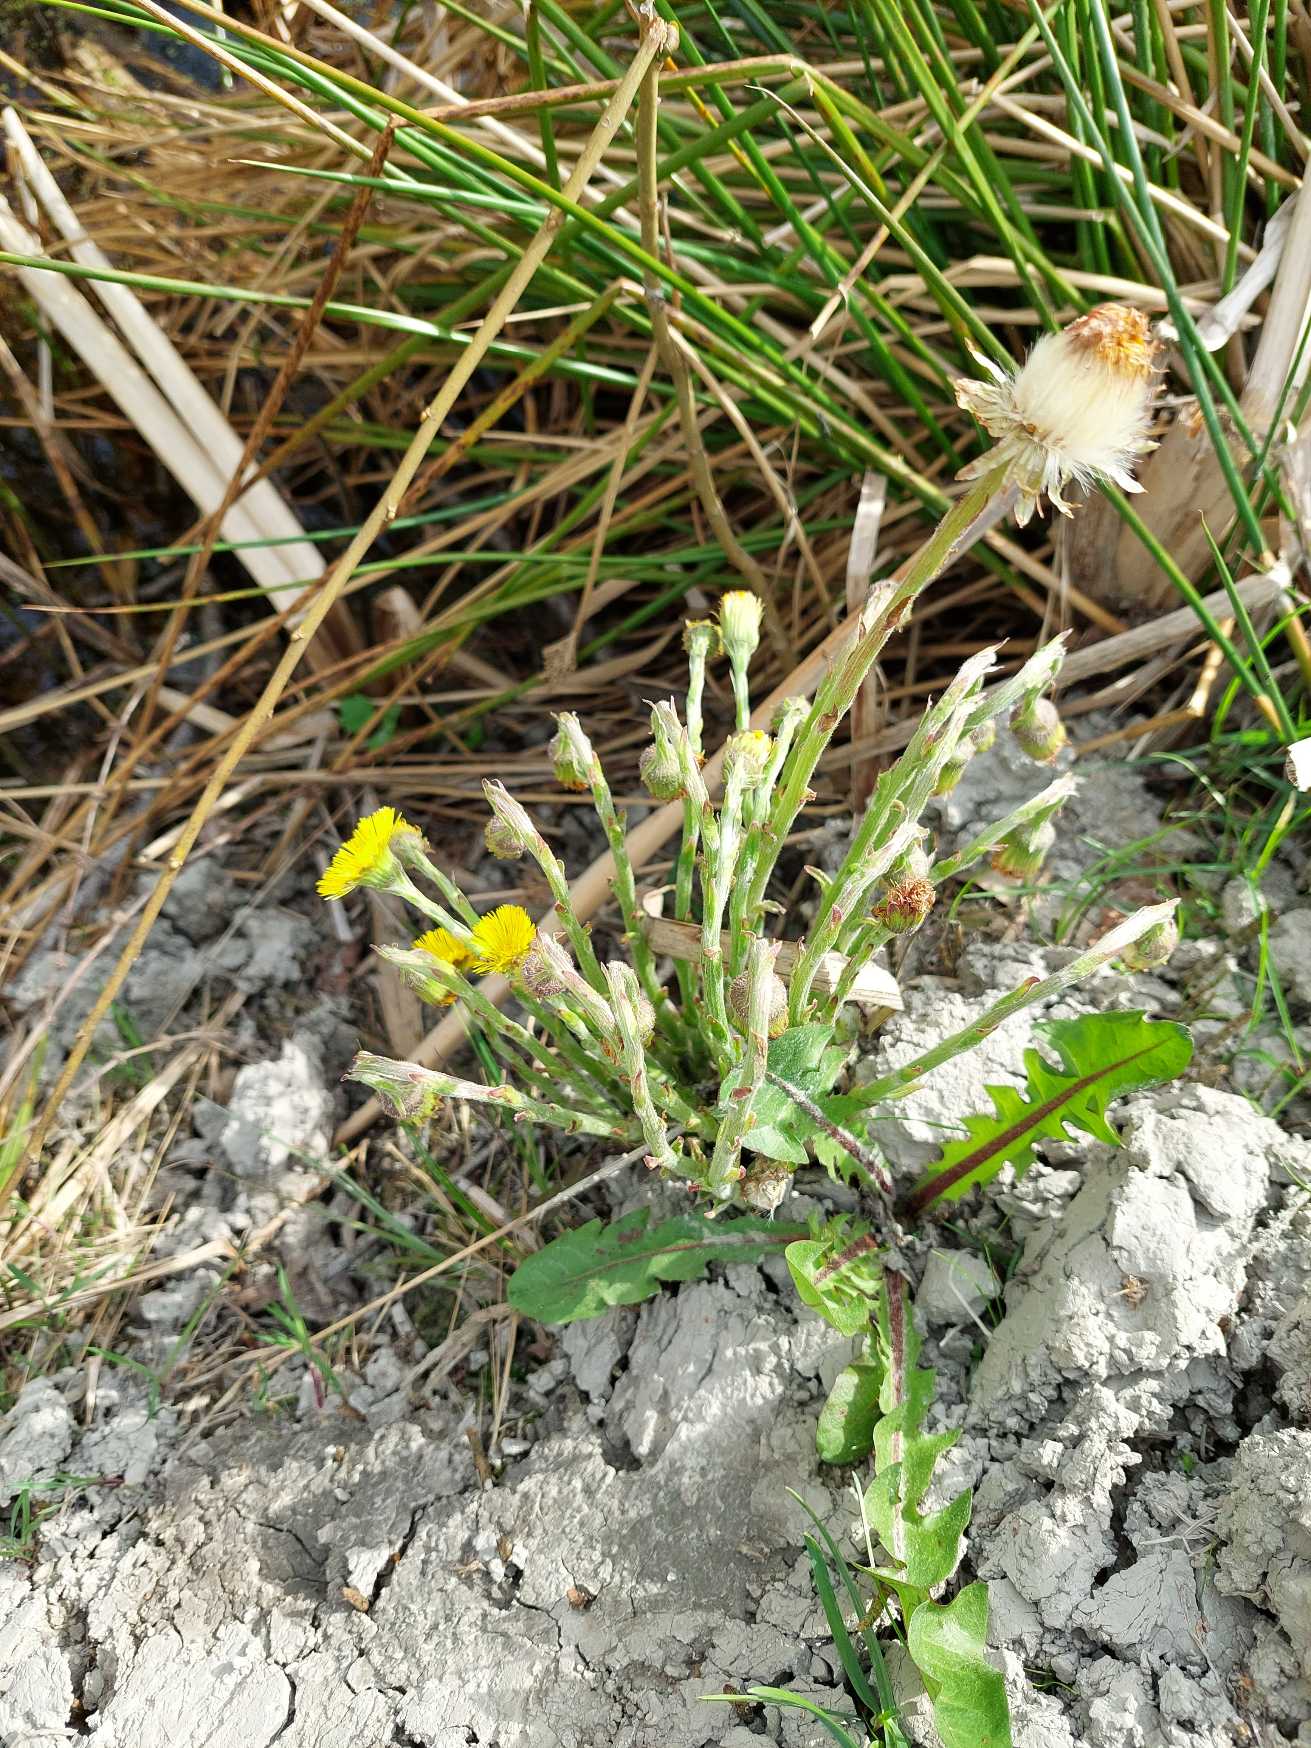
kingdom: Plantae
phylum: Tracheophyta
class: Magnoliopsida
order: Asterales
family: Asteraceae
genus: Tussilago
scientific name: Tussilago farfara
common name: Følfod
